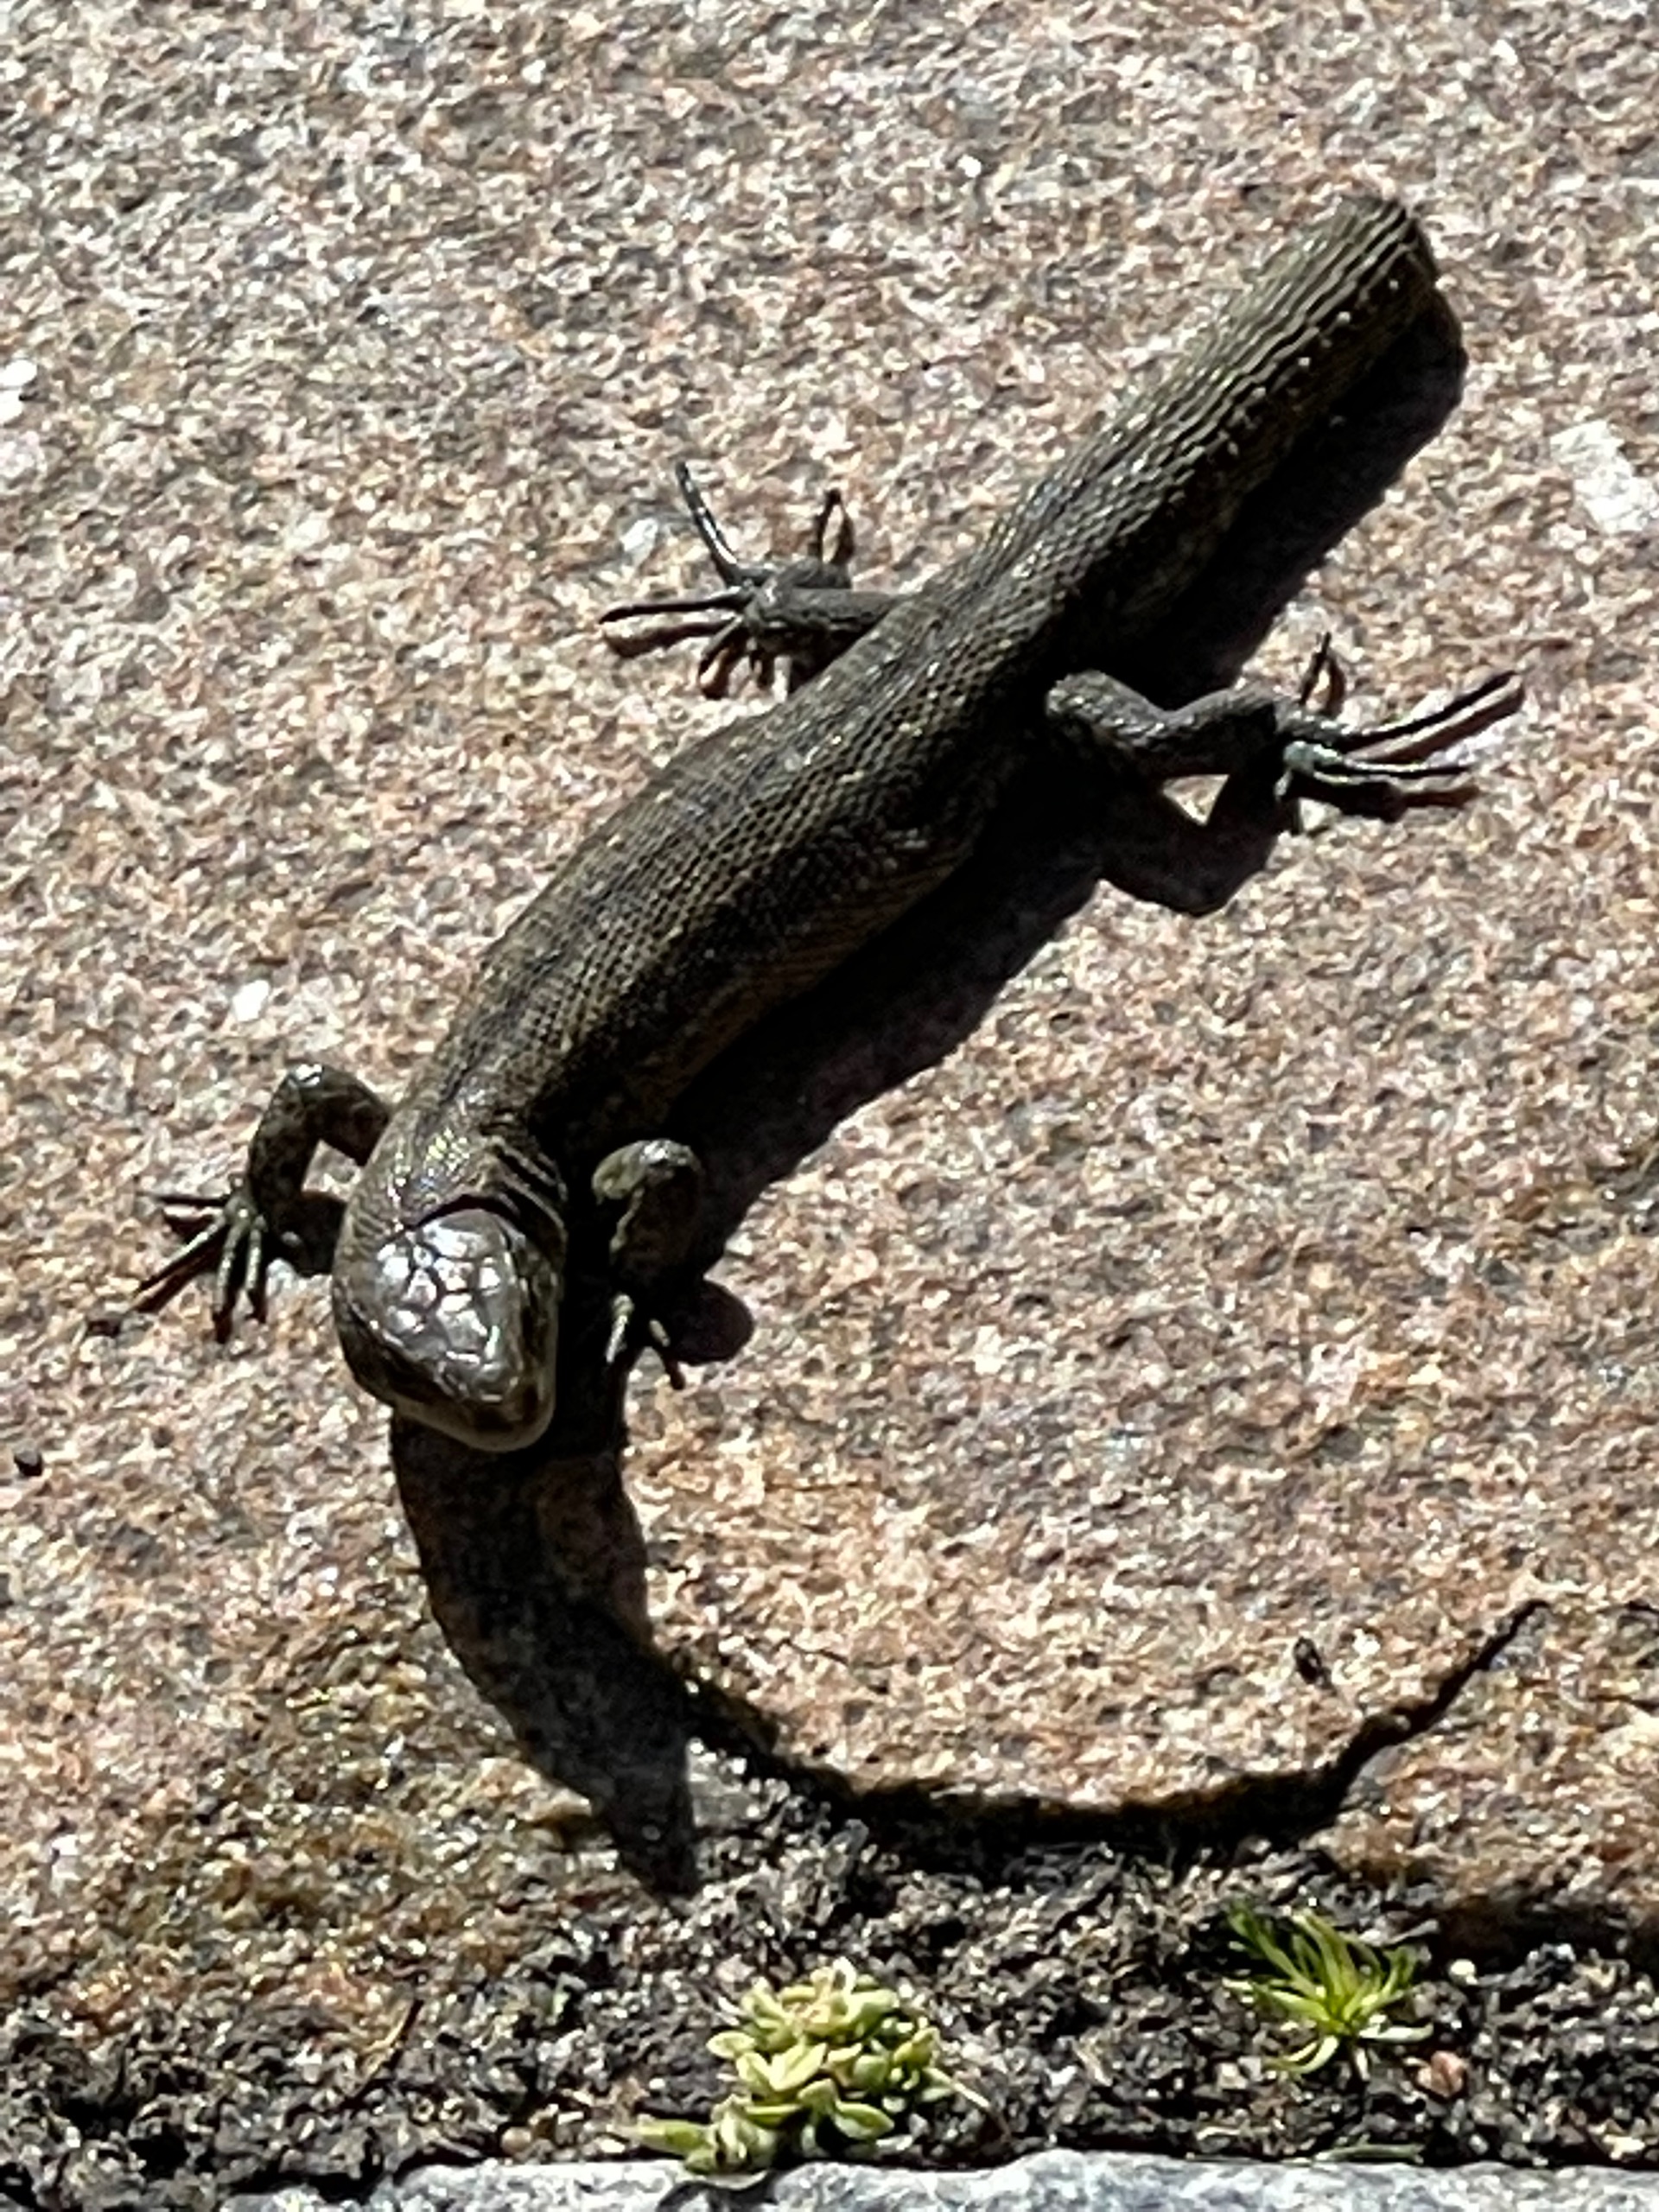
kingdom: Animalia
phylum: Chordata
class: Squamata
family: Lacertidae
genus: Zootoca
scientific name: Zootoca vivipara
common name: Skovfirben
